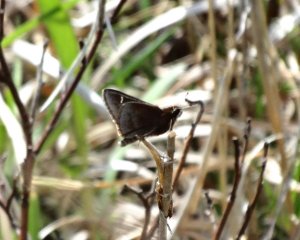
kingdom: Animalia
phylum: Arthropoda
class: Insecta
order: Lepidoptera
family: Hesperiidae
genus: Atrytonopsis
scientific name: Atrytonopsis hianna
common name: Dusted Skipper
